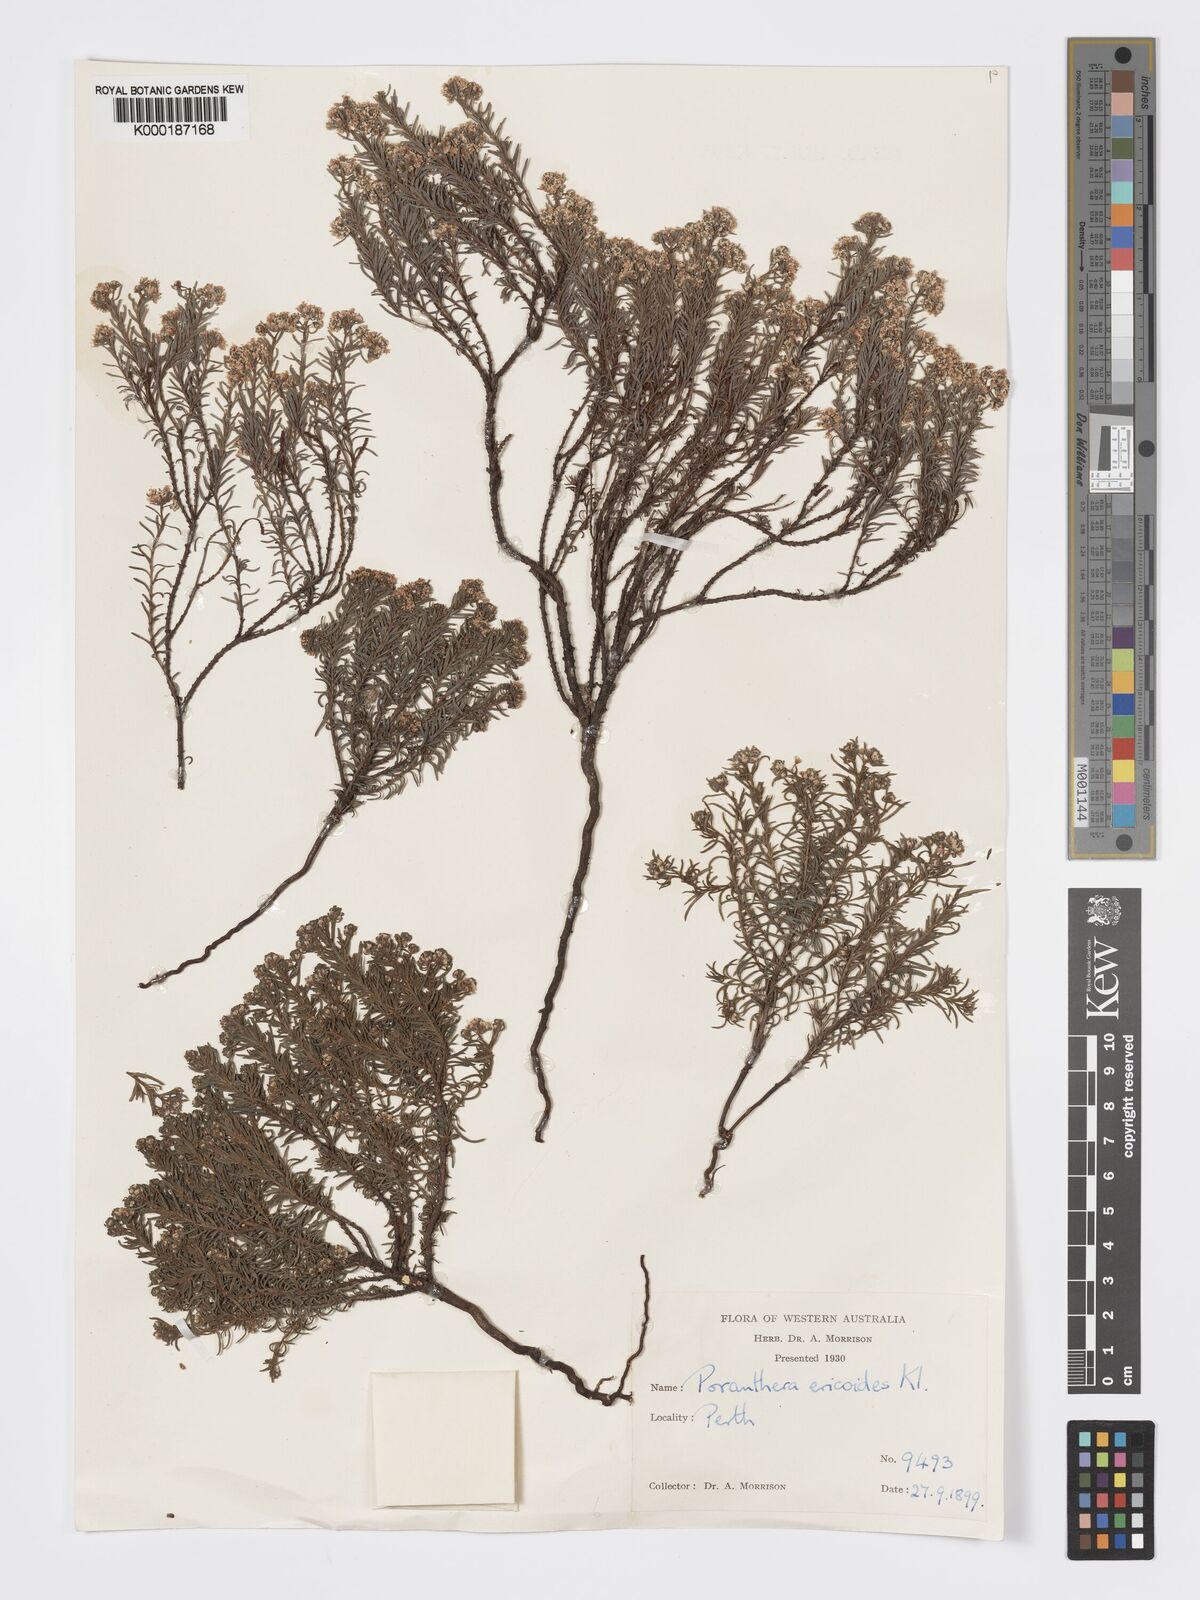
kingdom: Plantae
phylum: Tracheophyta
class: Magnoliopsida
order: Malpighiales
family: Phyllanthaceae
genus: Poranthera
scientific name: Poranthera ericoides
